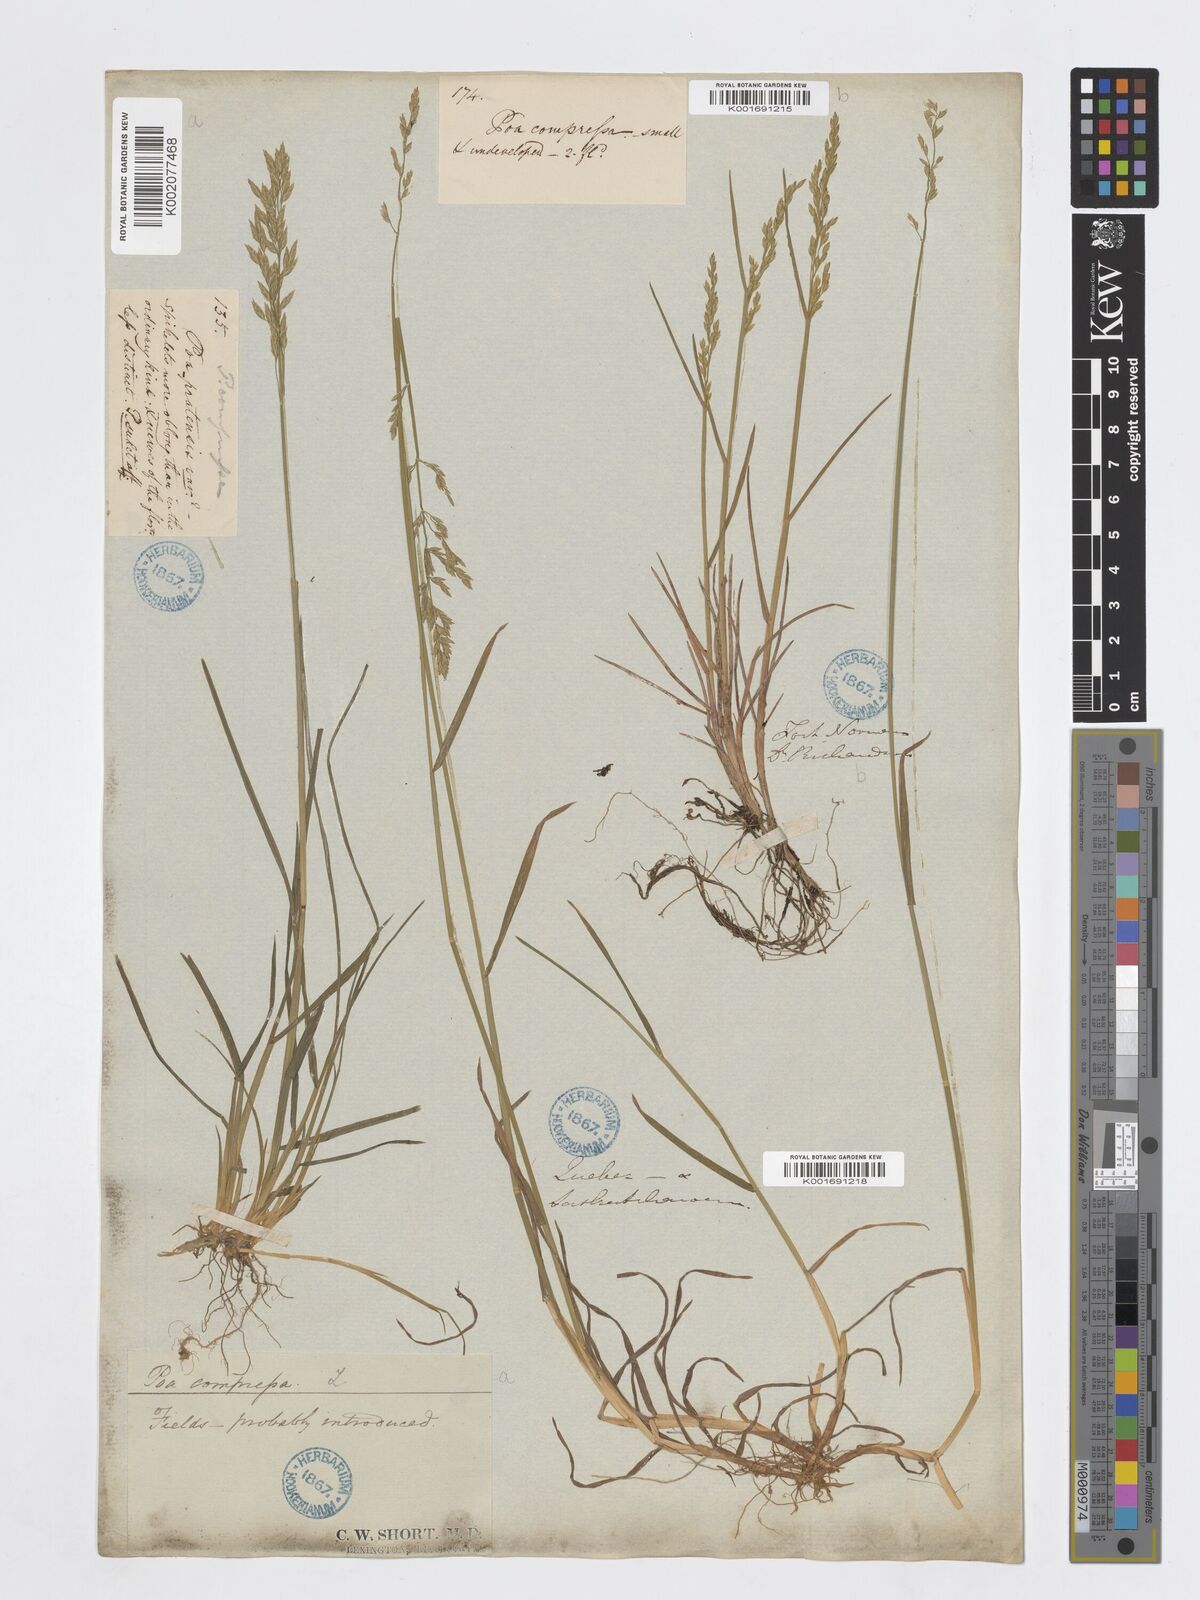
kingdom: Plantae
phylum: Tracheophyta
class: Liliopsida
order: Poales
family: Poaceae
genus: Poa
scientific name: Poa compressa
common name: Canada bluegrass
